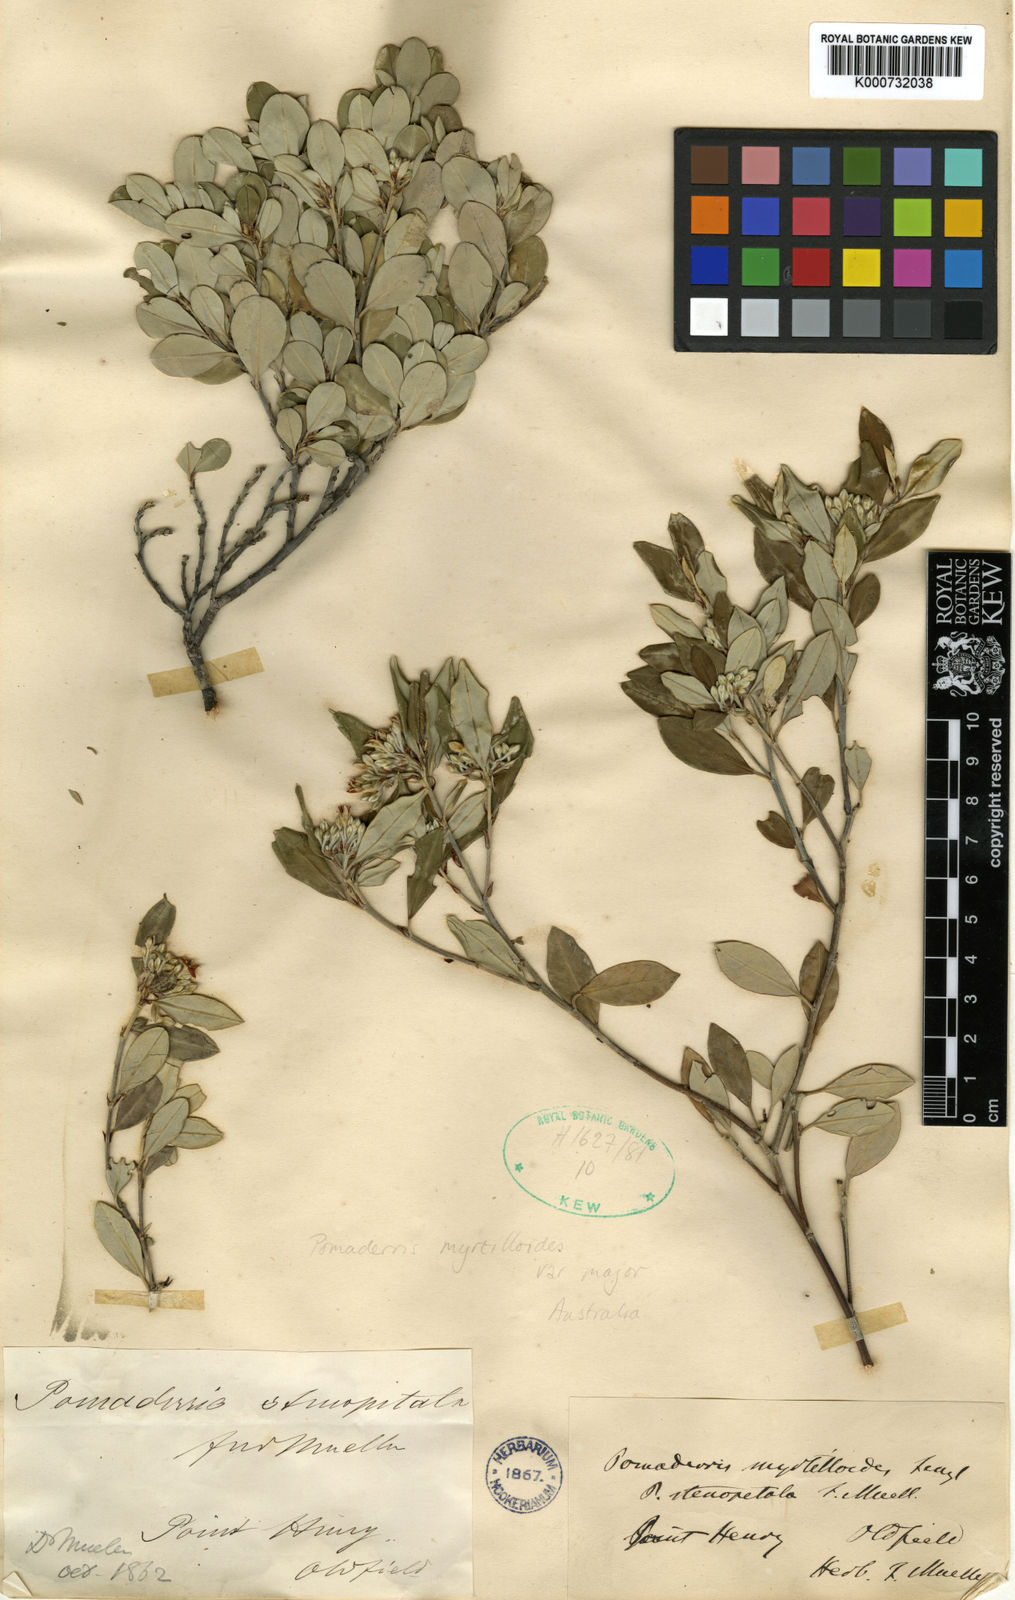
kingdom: Plantae
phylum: Tracheophyta
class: Magnoliopsida
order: Rosales
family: Rhamnaceae
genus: Pomaderris
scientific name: Pomaderris myrtilloides
